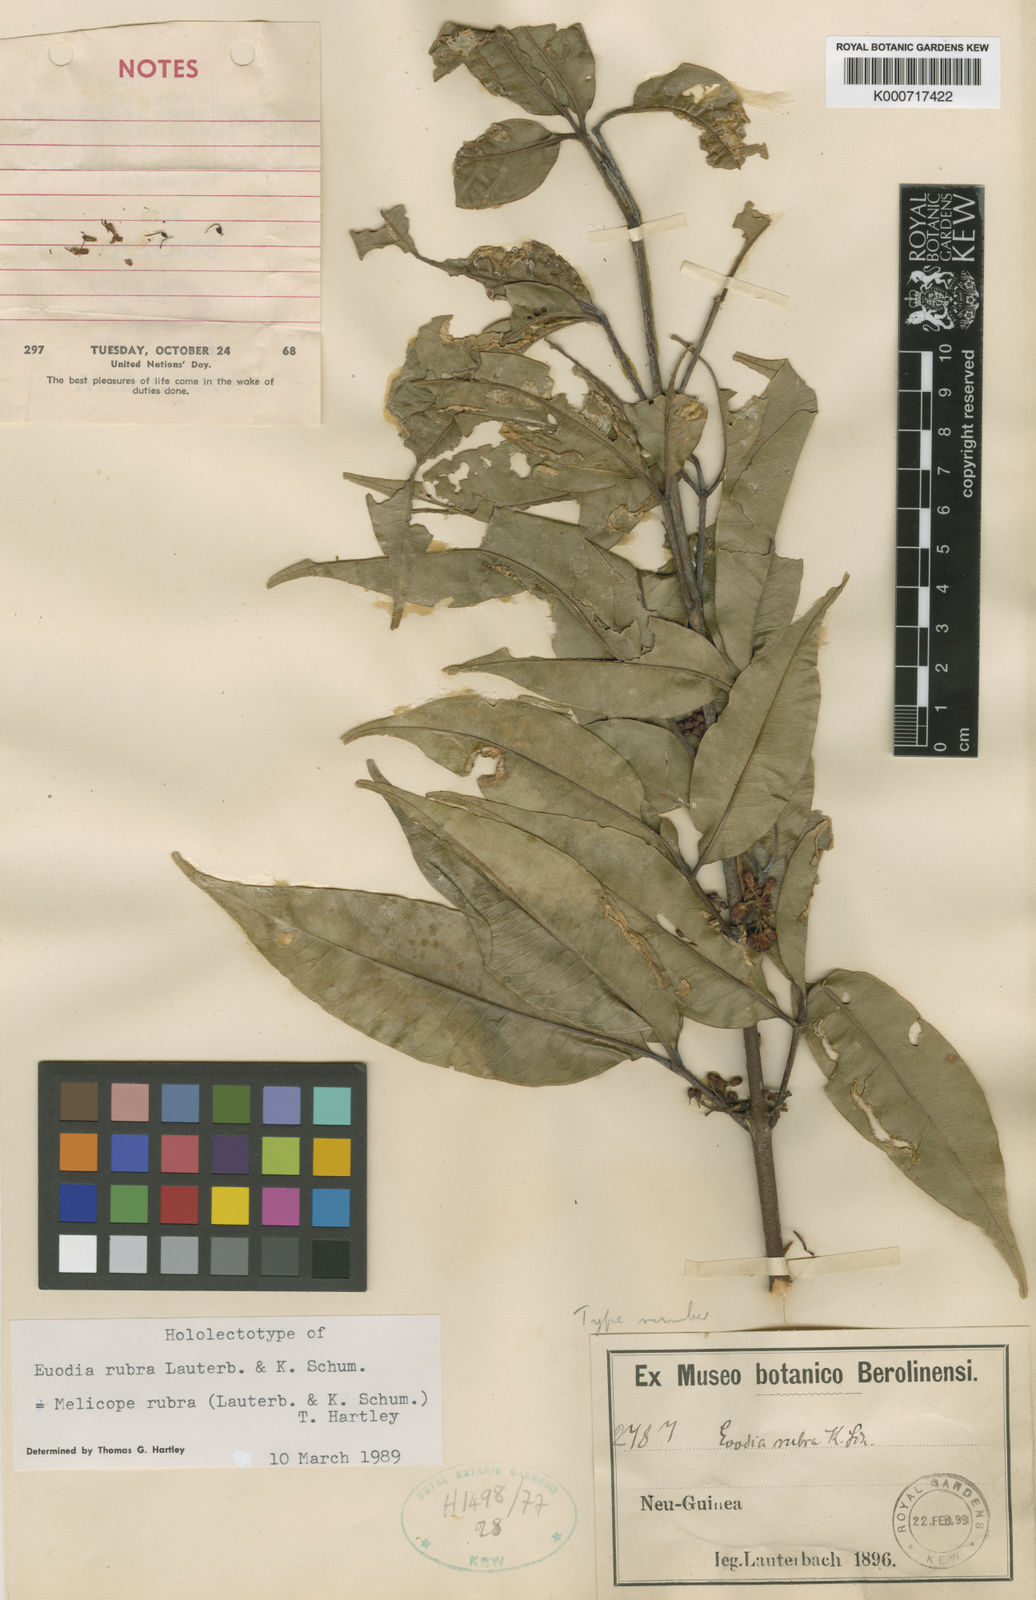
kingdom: Plantae
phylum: Tracheophyta
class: Magnoliopsida
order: Sapindales
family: Rutaceae
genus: Melicope
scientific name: Melicope rubra
